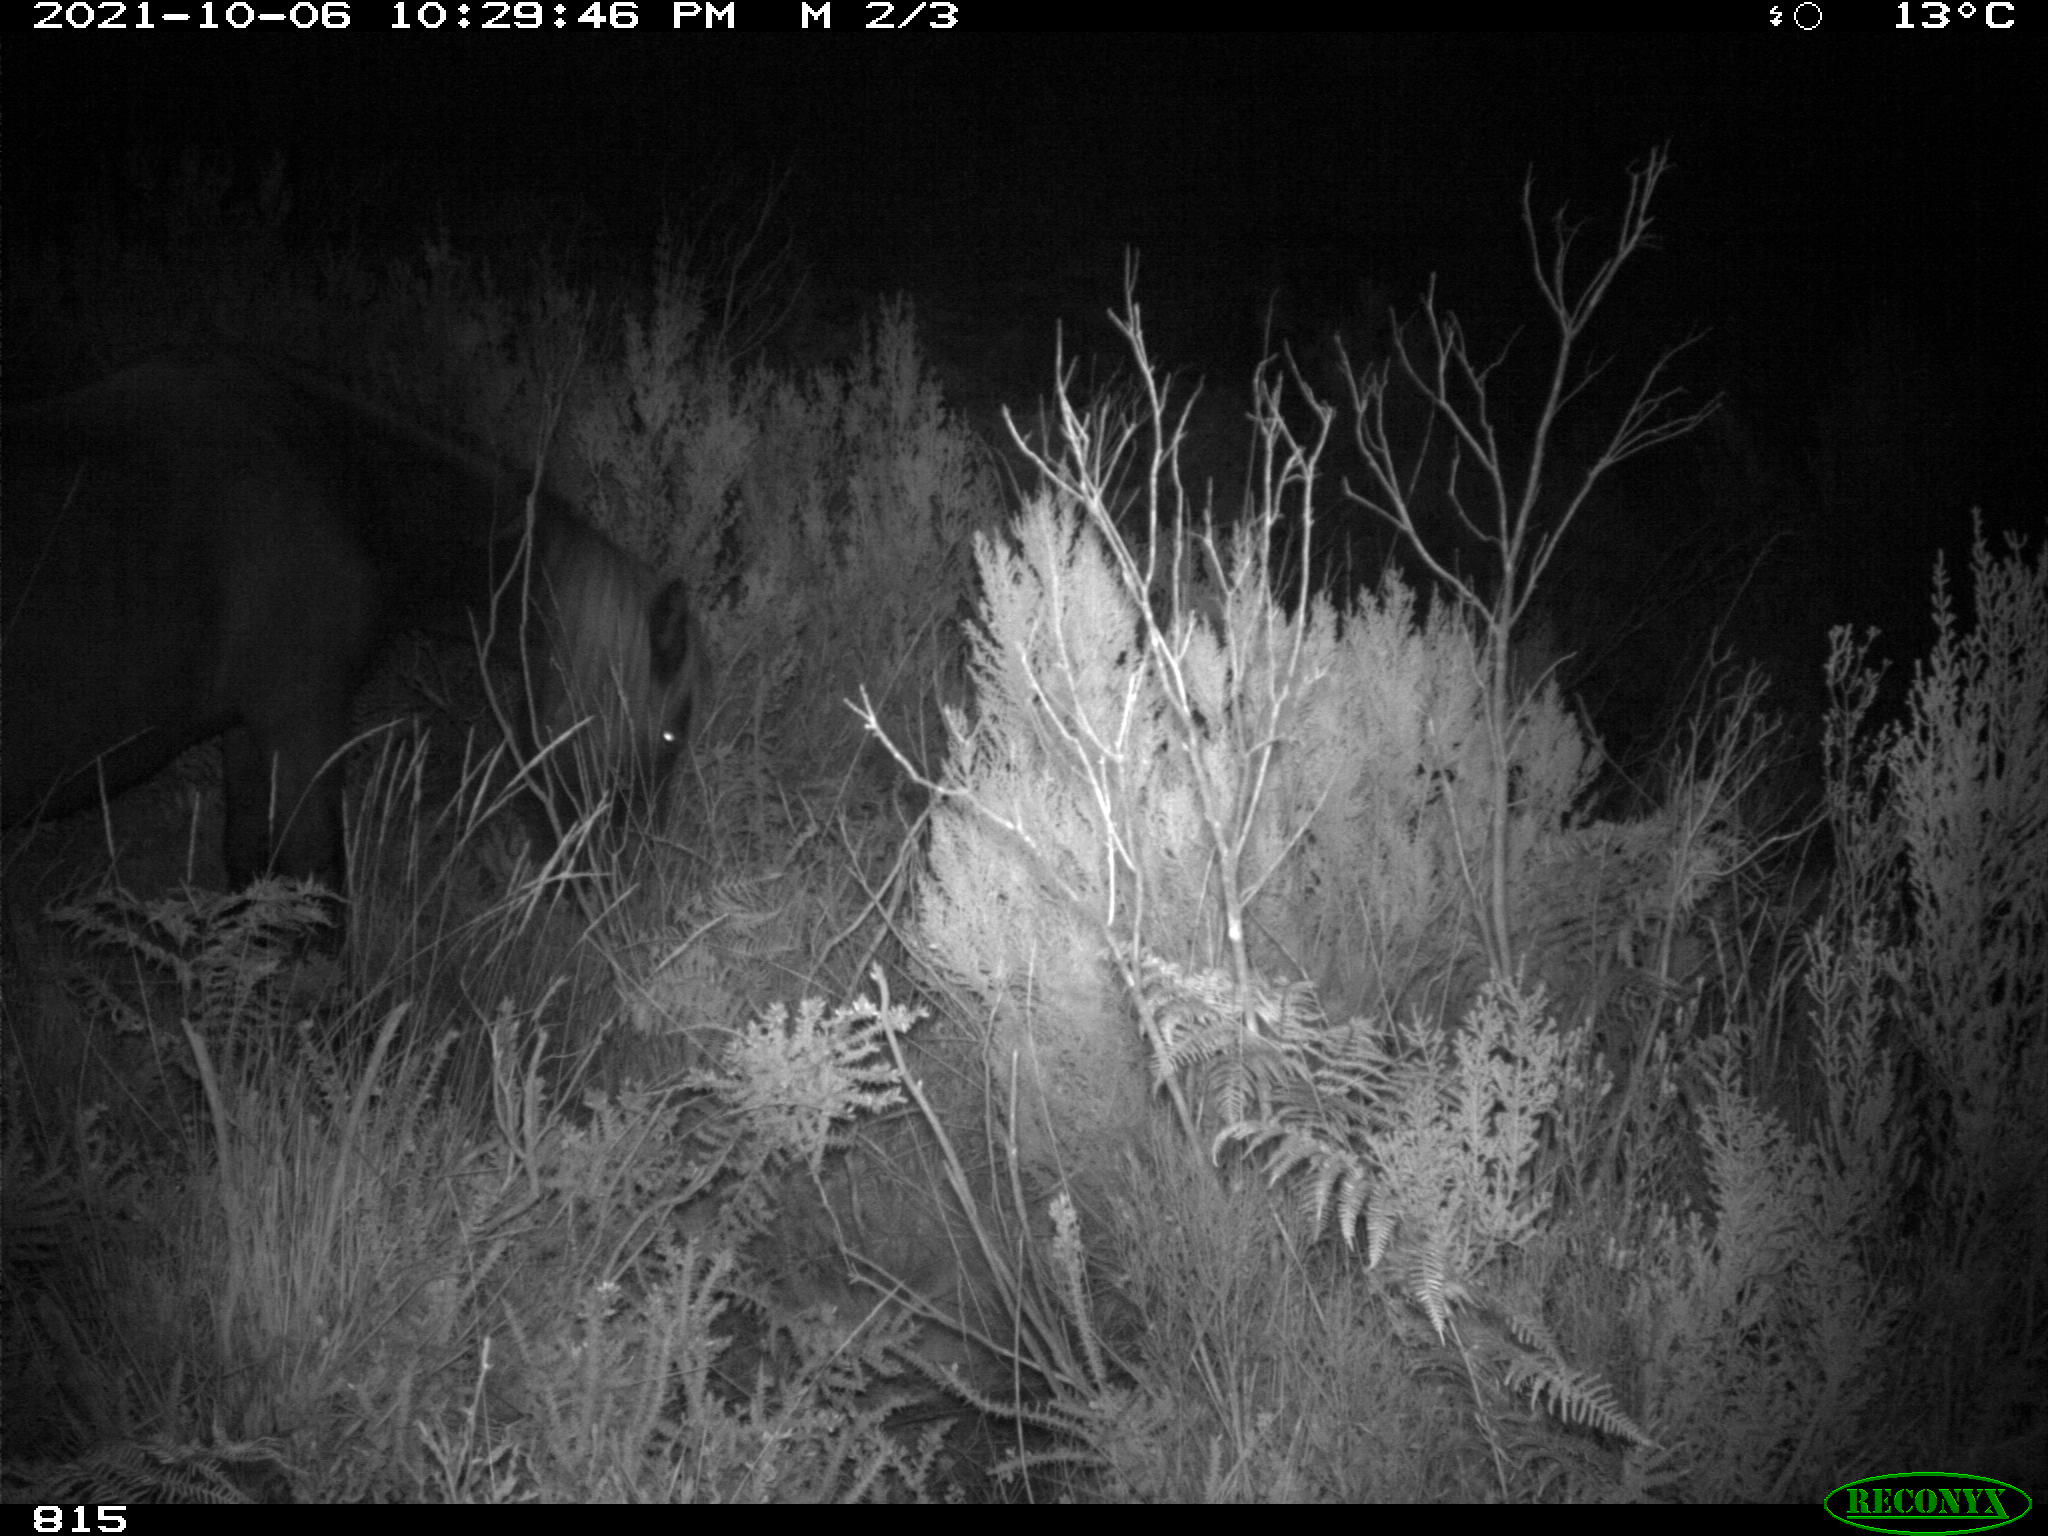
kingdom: Animalia
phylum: Chordata
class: Mammalia
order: Perissodactyla
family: Equidae
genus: Equus
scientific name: Equus caballus
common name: Horse
